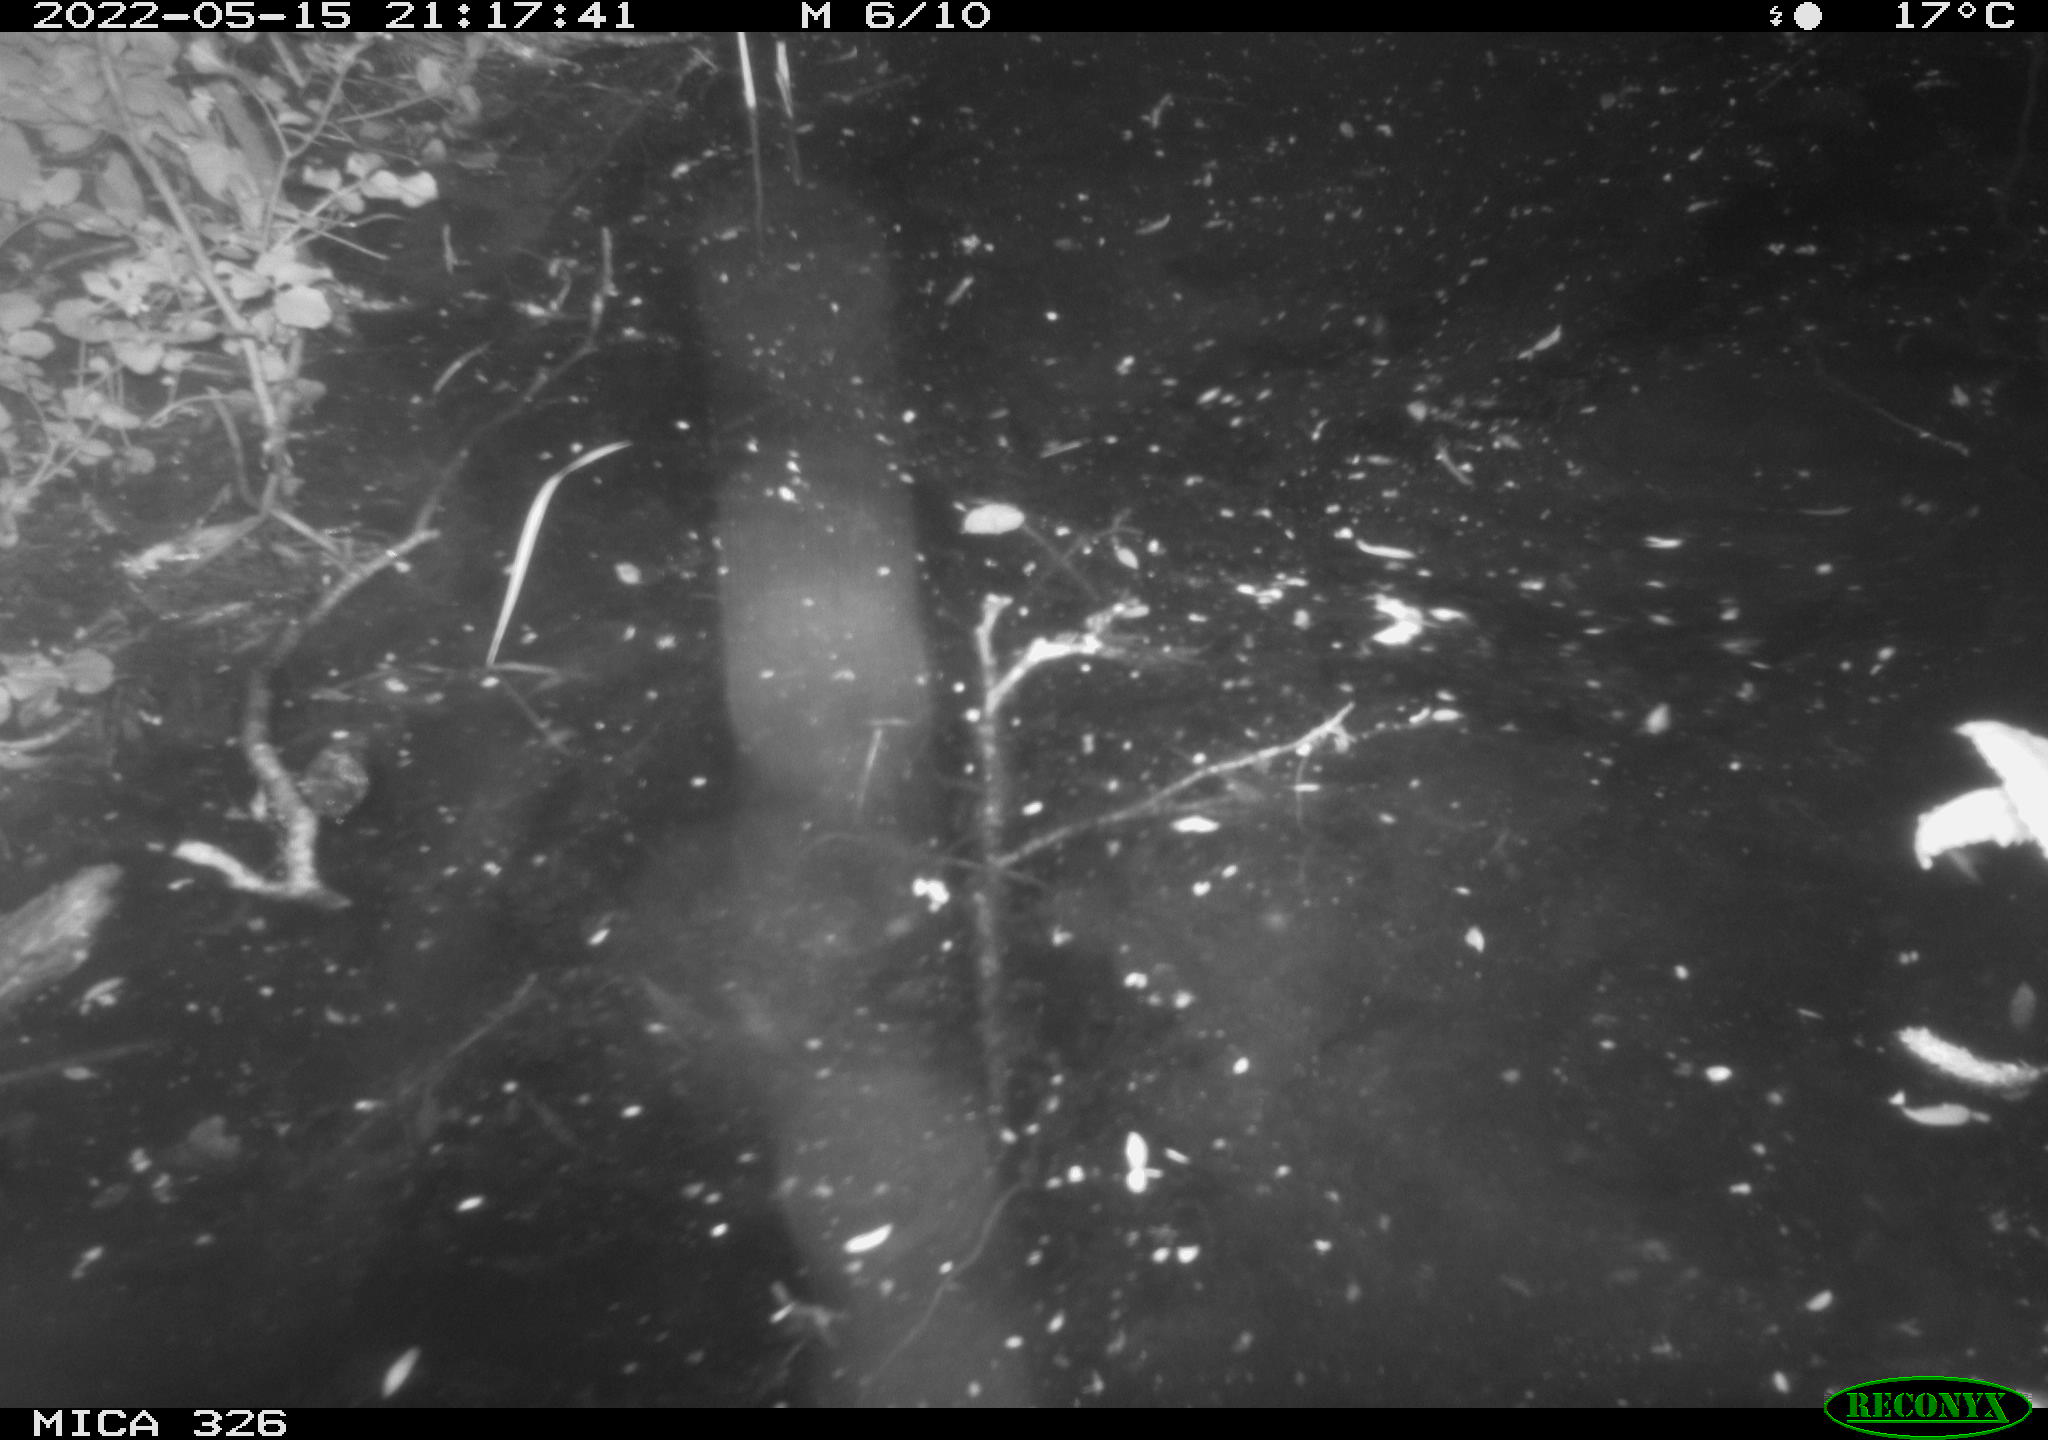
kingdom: Animalia
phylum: Chordata
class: Mammalia
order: Carnivora
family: Mustelidae
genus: Lutra
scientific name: Lutra lutra
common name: European otter
